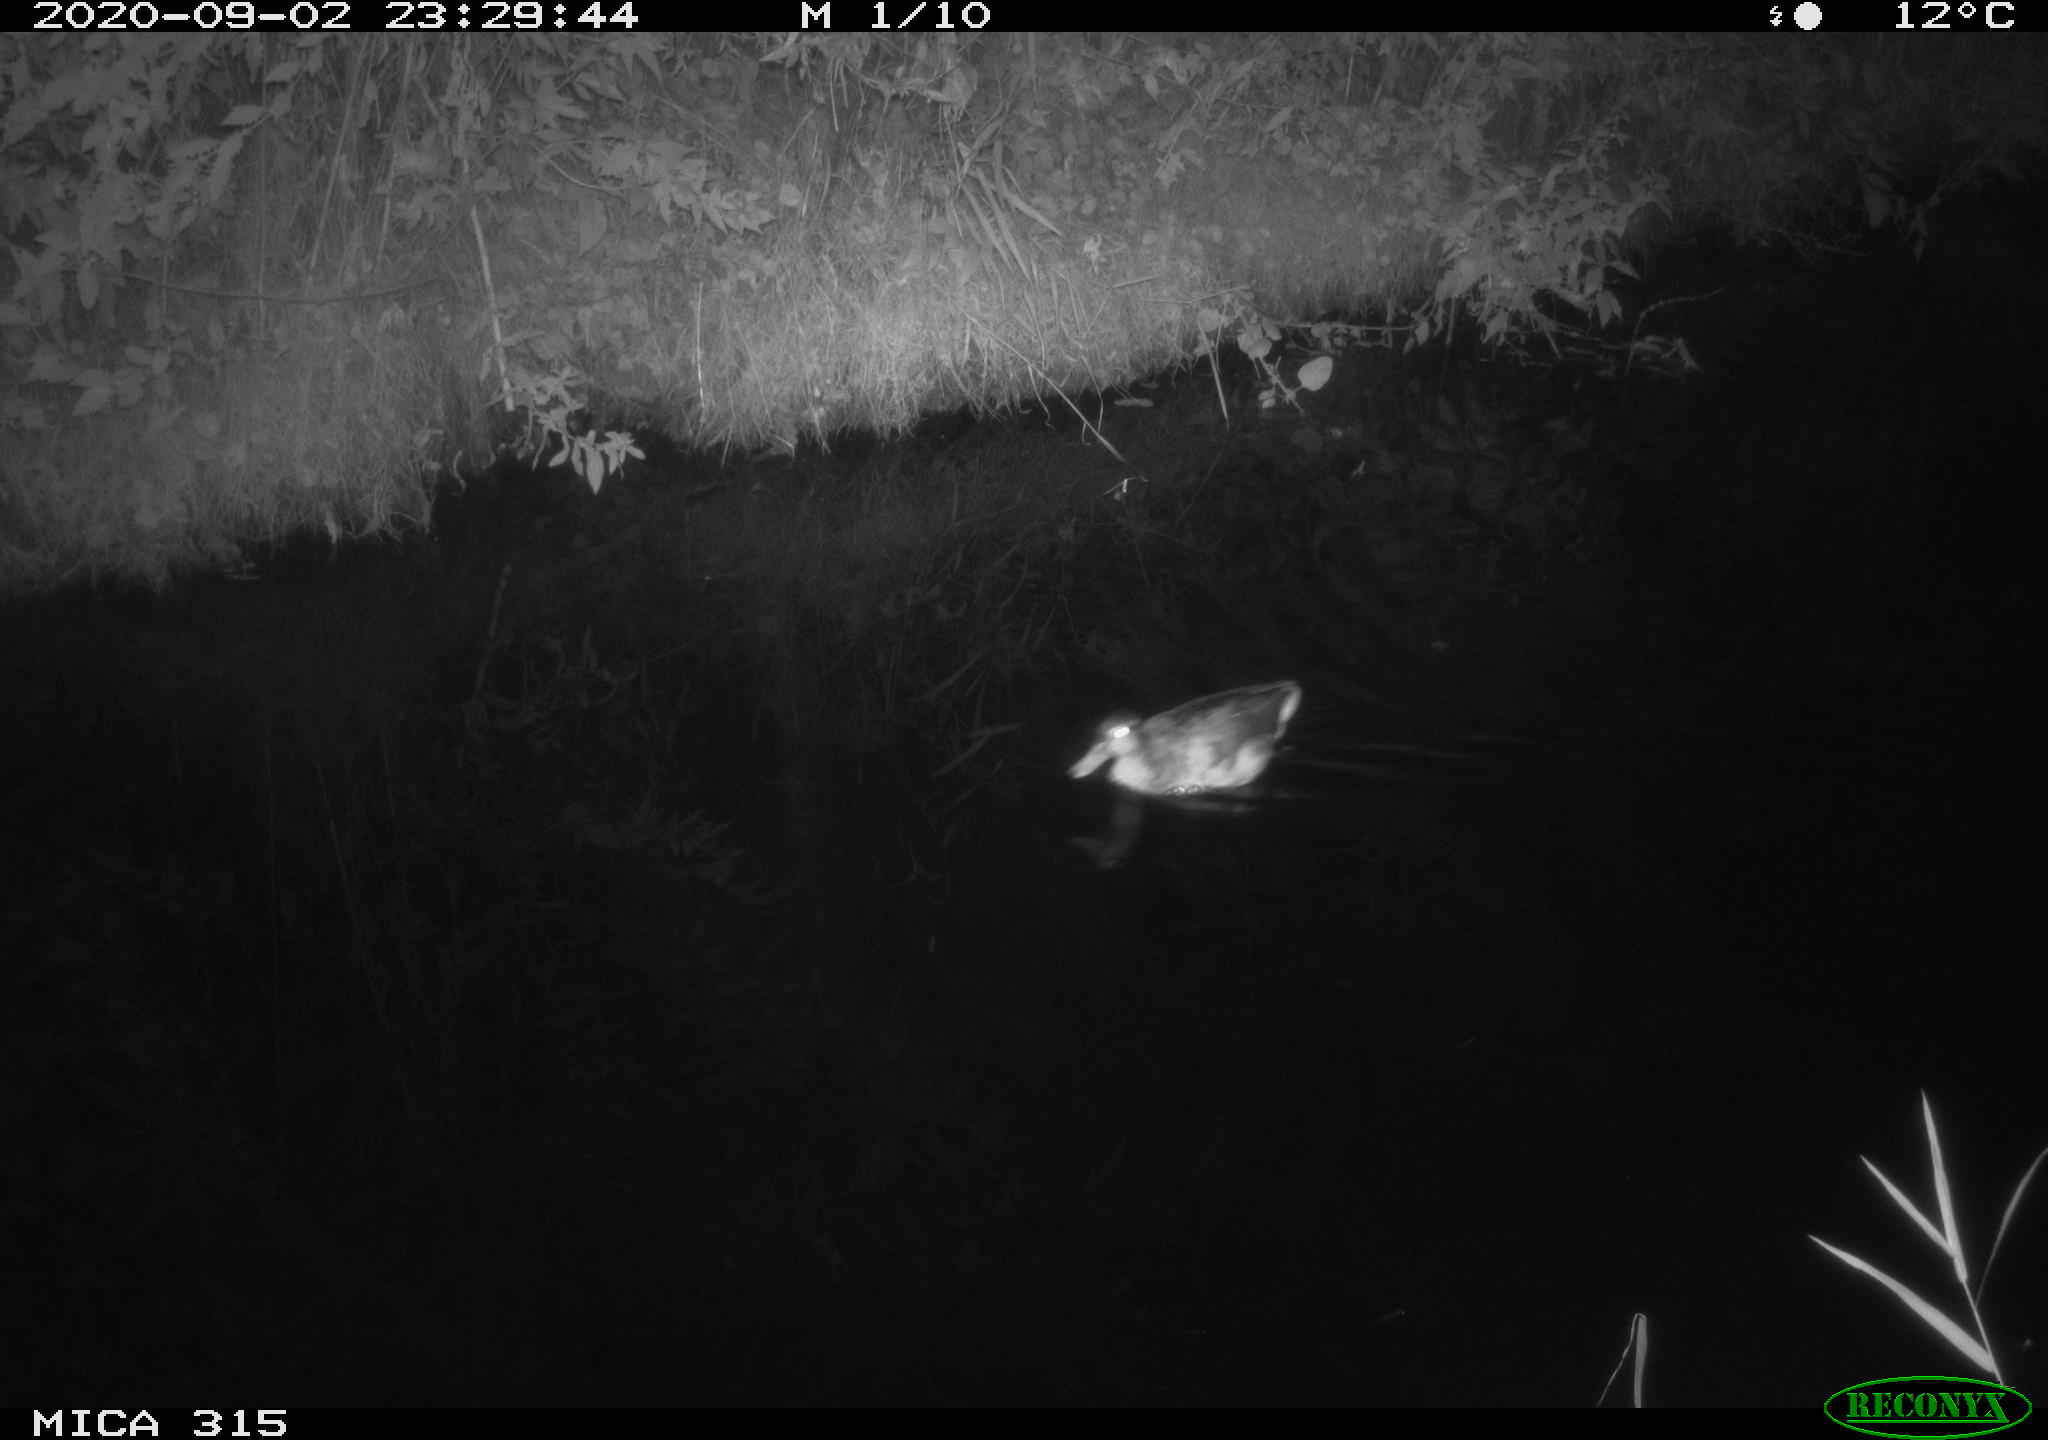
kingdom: Animalia
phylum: Chordata
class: Aves
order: Anseriformes
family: Anatidae
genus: Anas
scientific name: Anas platyrhynchos
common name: Mallard
